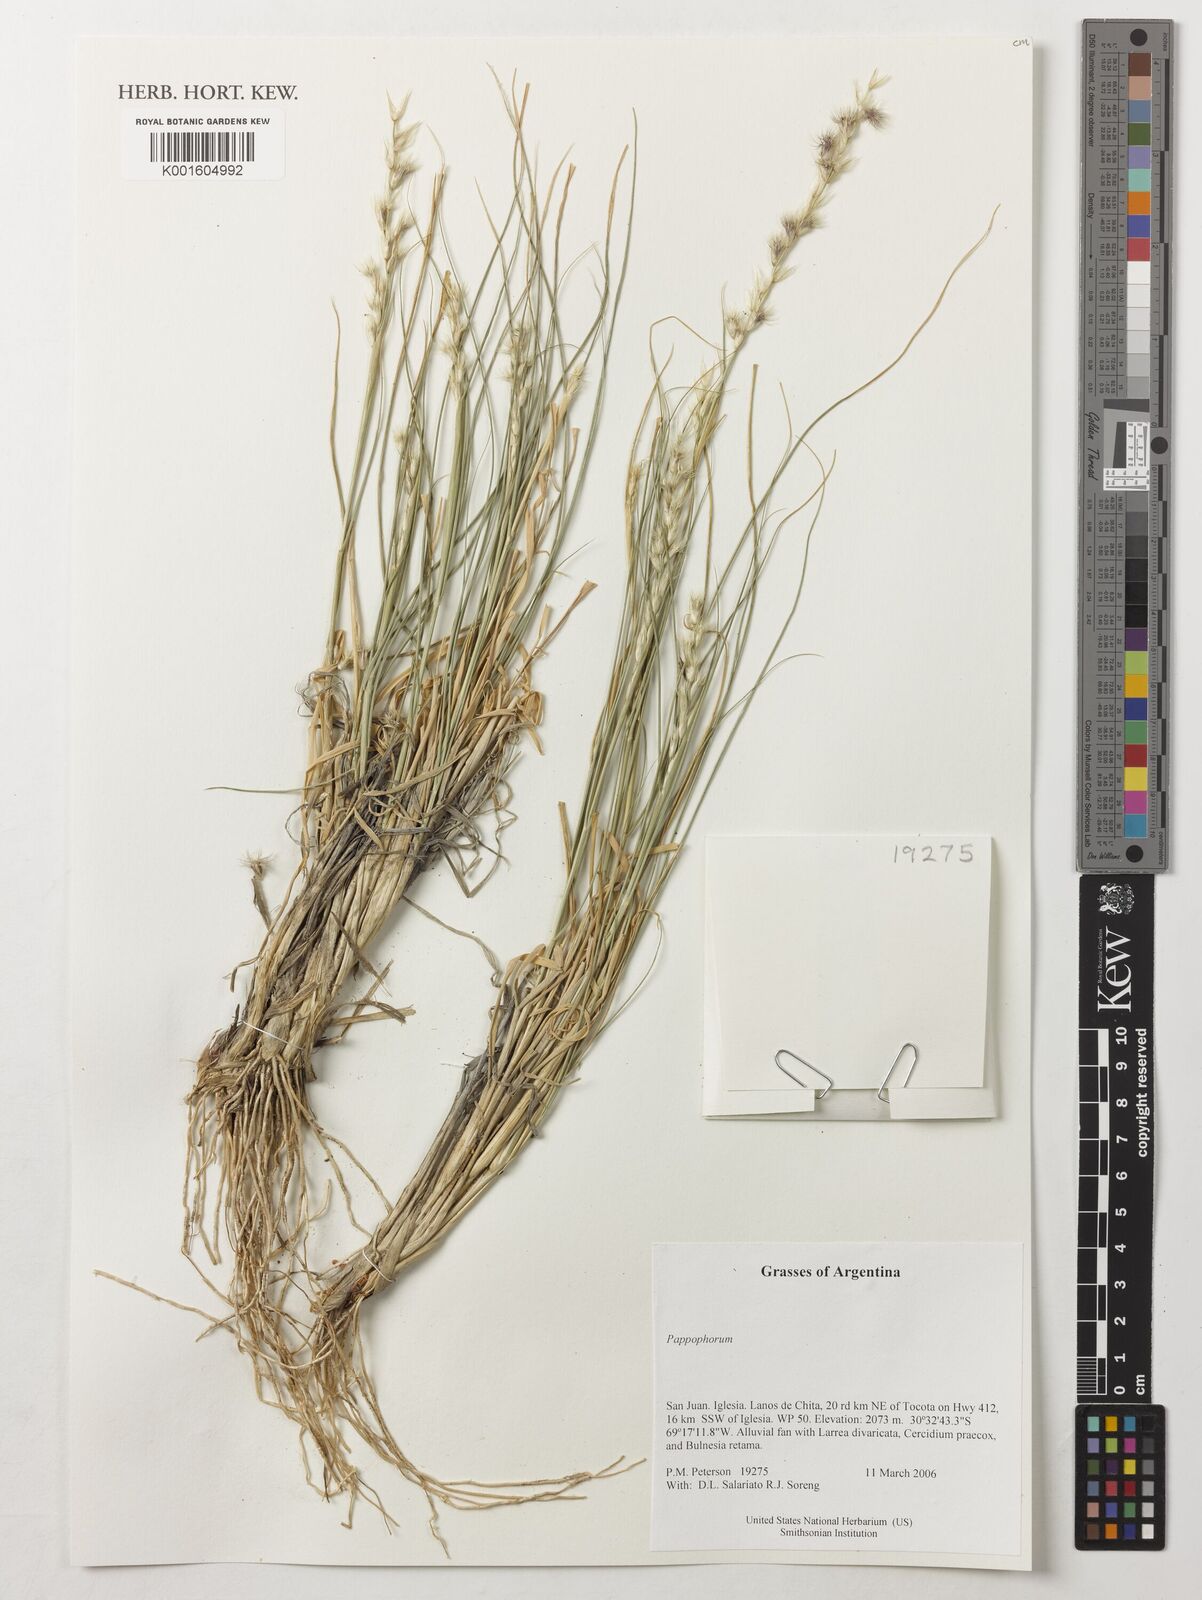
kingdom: Plantae
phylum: Tracheophyta
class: Liliopsida
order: Poales
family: Poaceae
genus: Pappophorum
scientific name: Pappophorum
